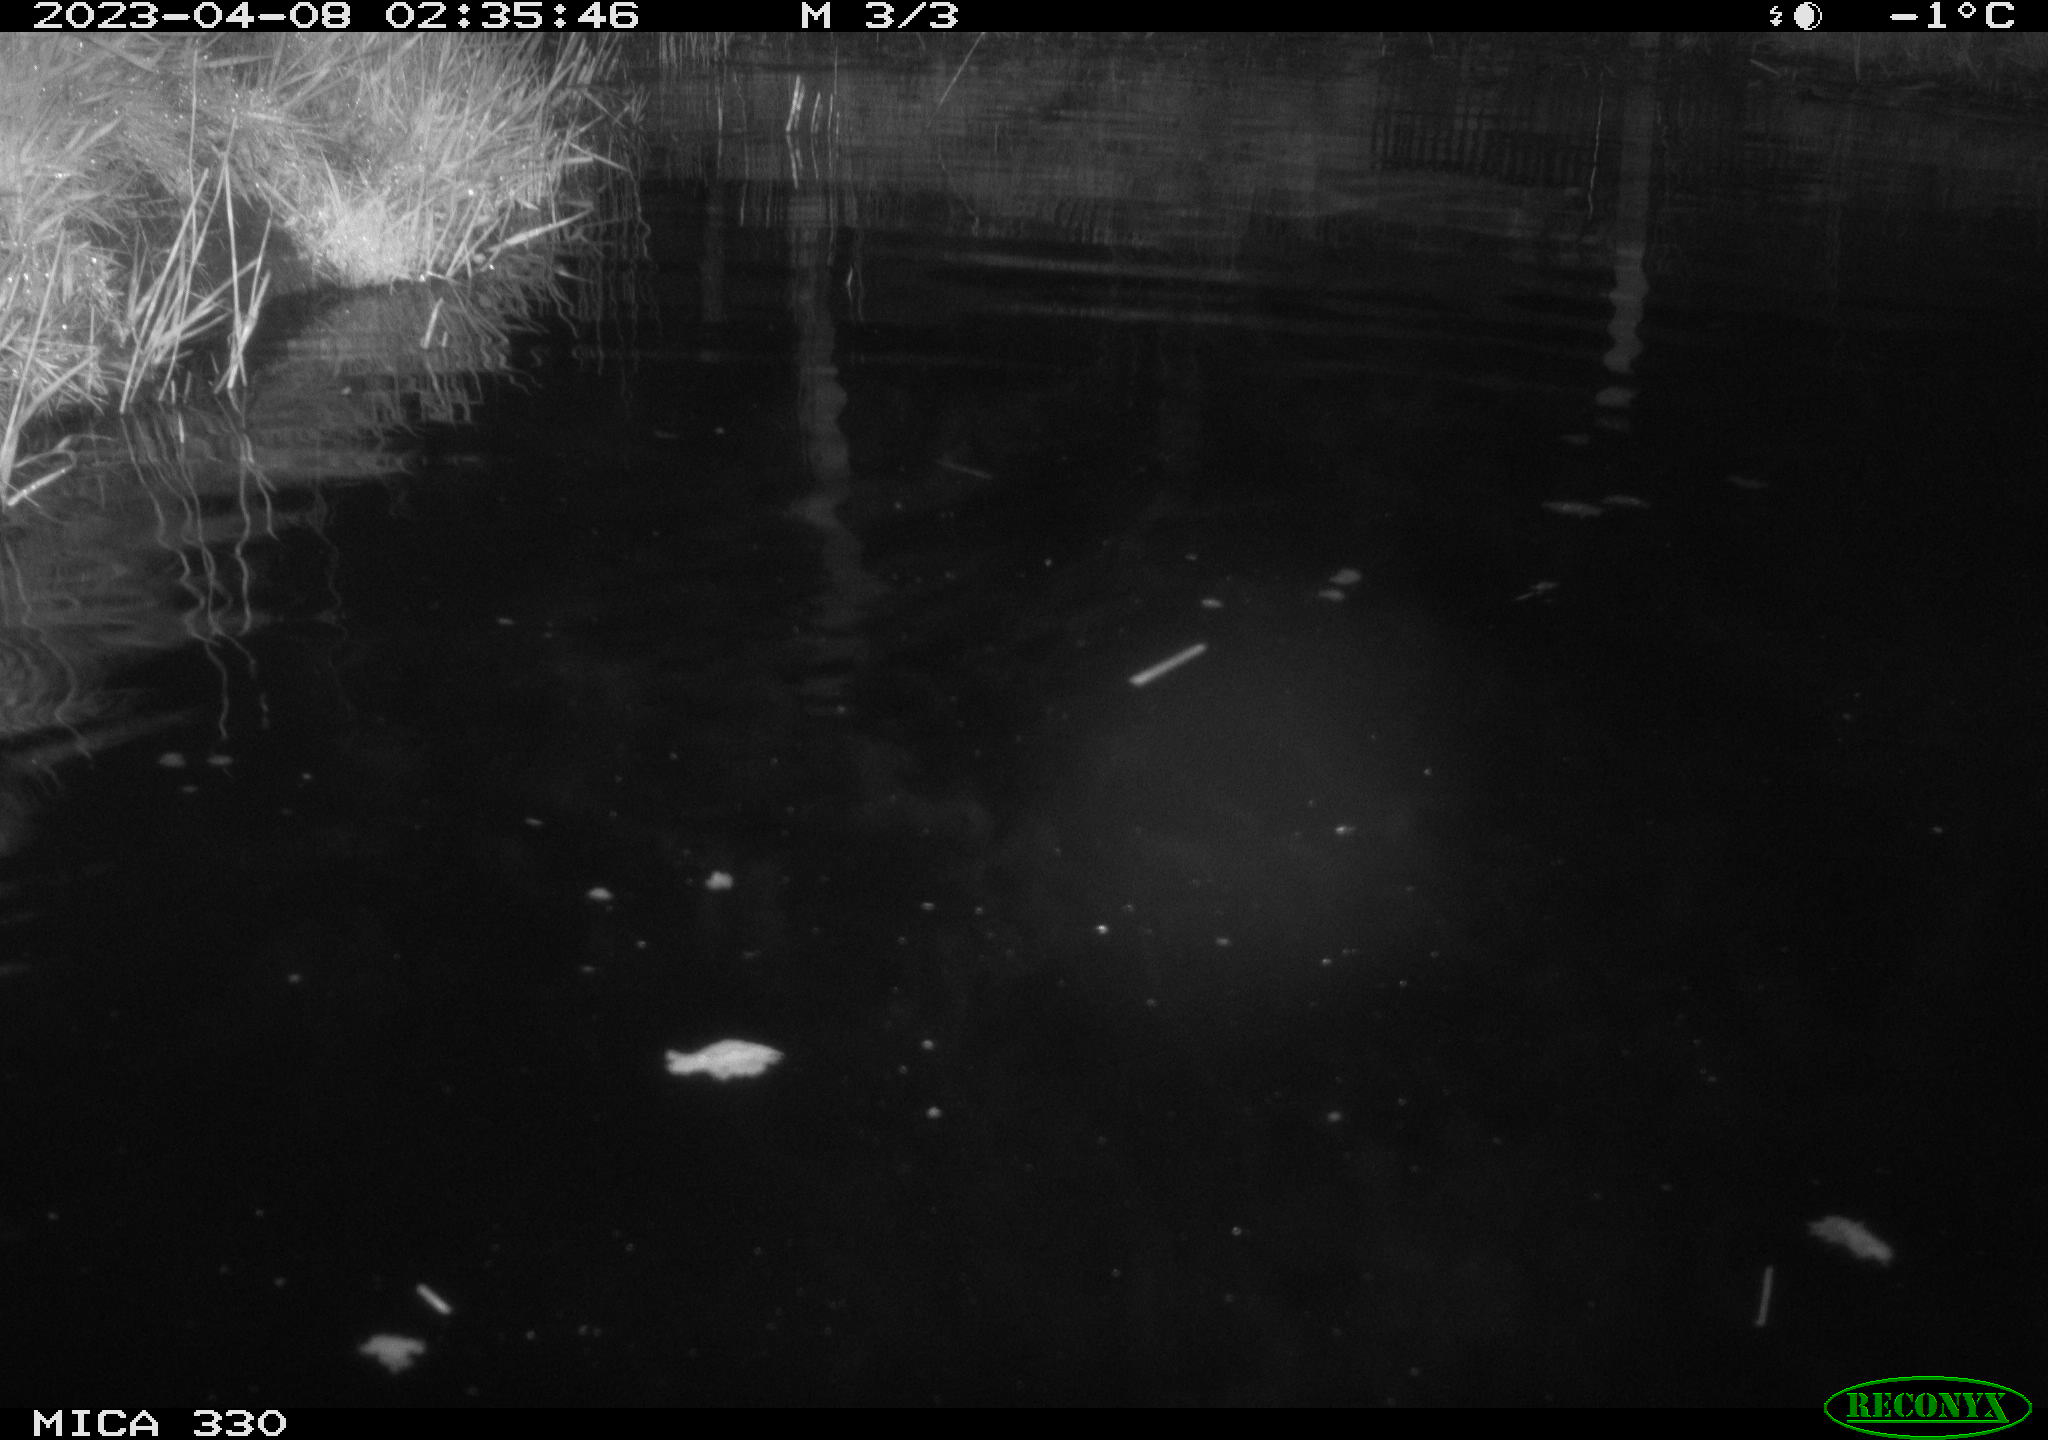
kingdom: Animalia
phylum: Chordata
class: Aves
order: Anseriformes
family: Anatidae
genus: Anas
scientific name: Anas
